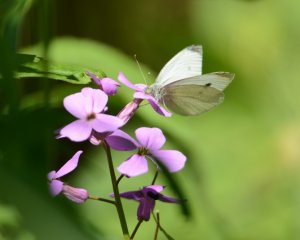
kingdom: Animalia
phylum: Arthropoda
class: Insecta
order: Lepidoptera
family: Pieridae
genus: Pieris
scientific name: Pieris rapae
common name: Cabbage White
